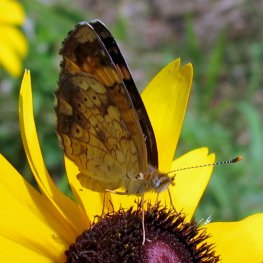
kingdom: Animalia
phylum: Arthropoda
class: Insecta
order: Lepidoptera
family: Nymphalidae
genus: Phyciodes
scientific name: Phyciodes tharos
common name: Northern Crescent
